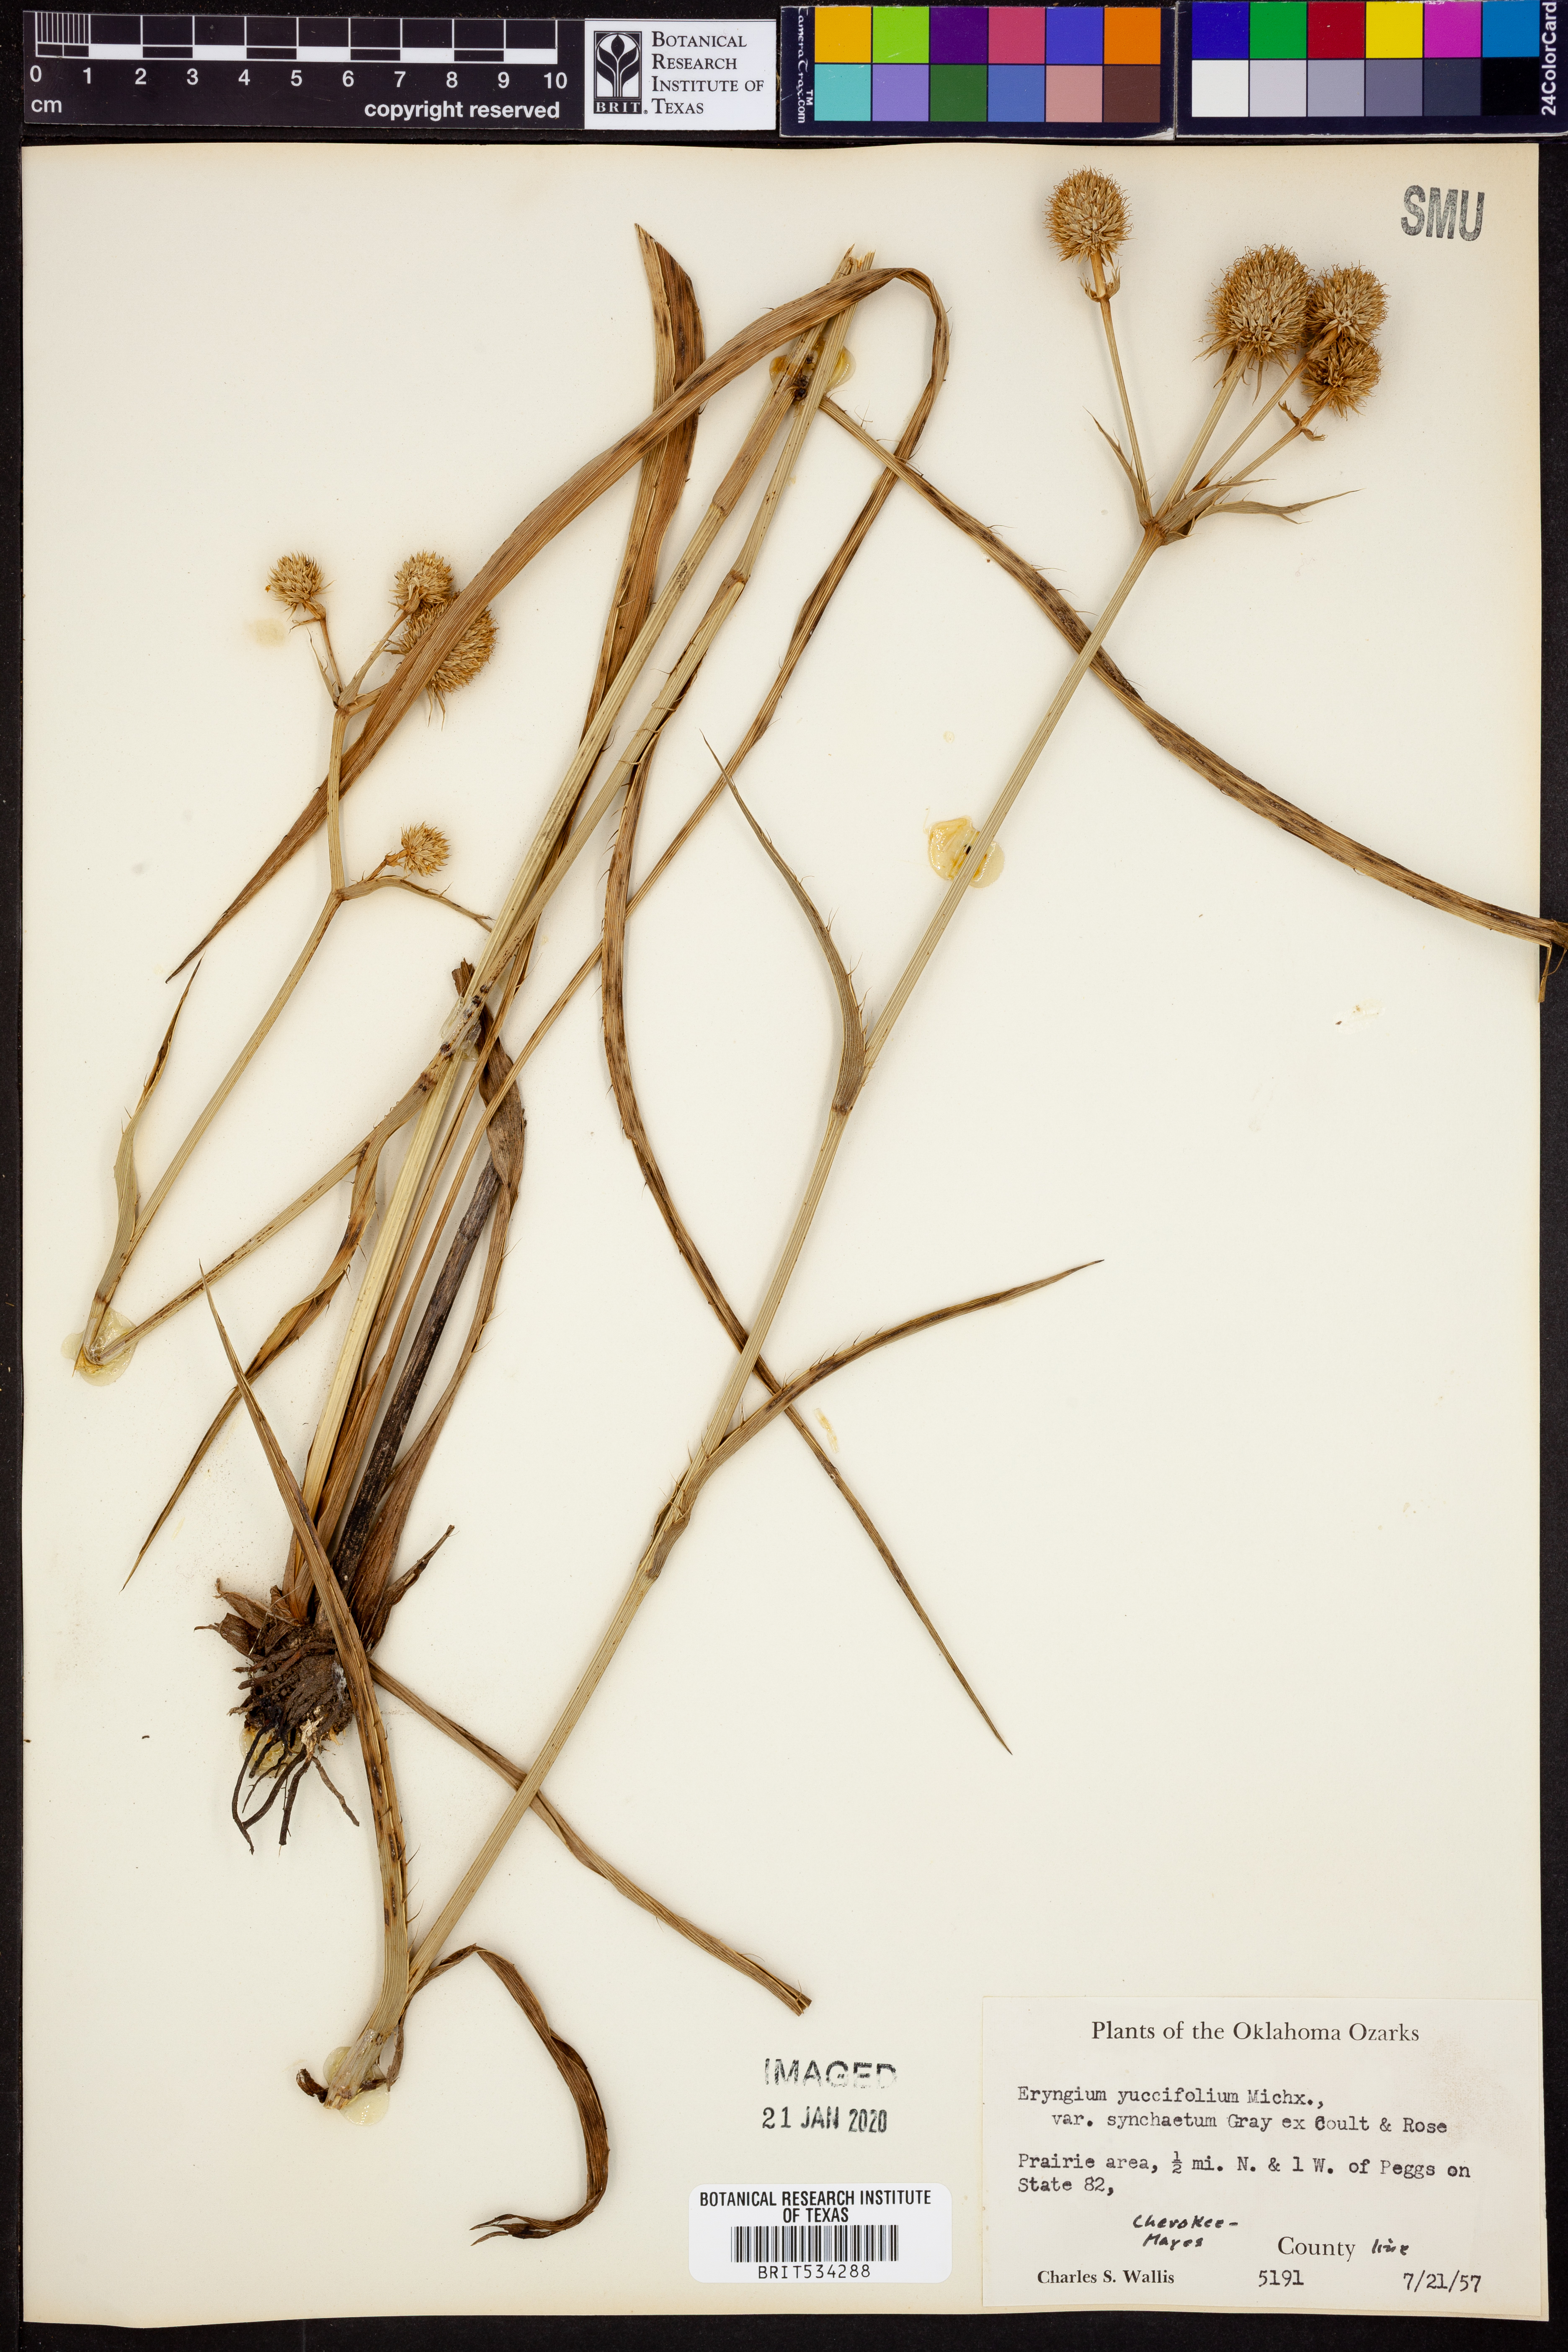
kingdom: Plantae
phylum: Tracheophyta
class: Magnoliopsida
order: Apiales
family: Apiaceae
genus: Eryngium
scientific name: Eryngium yuccifolium
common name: Button eryngo
